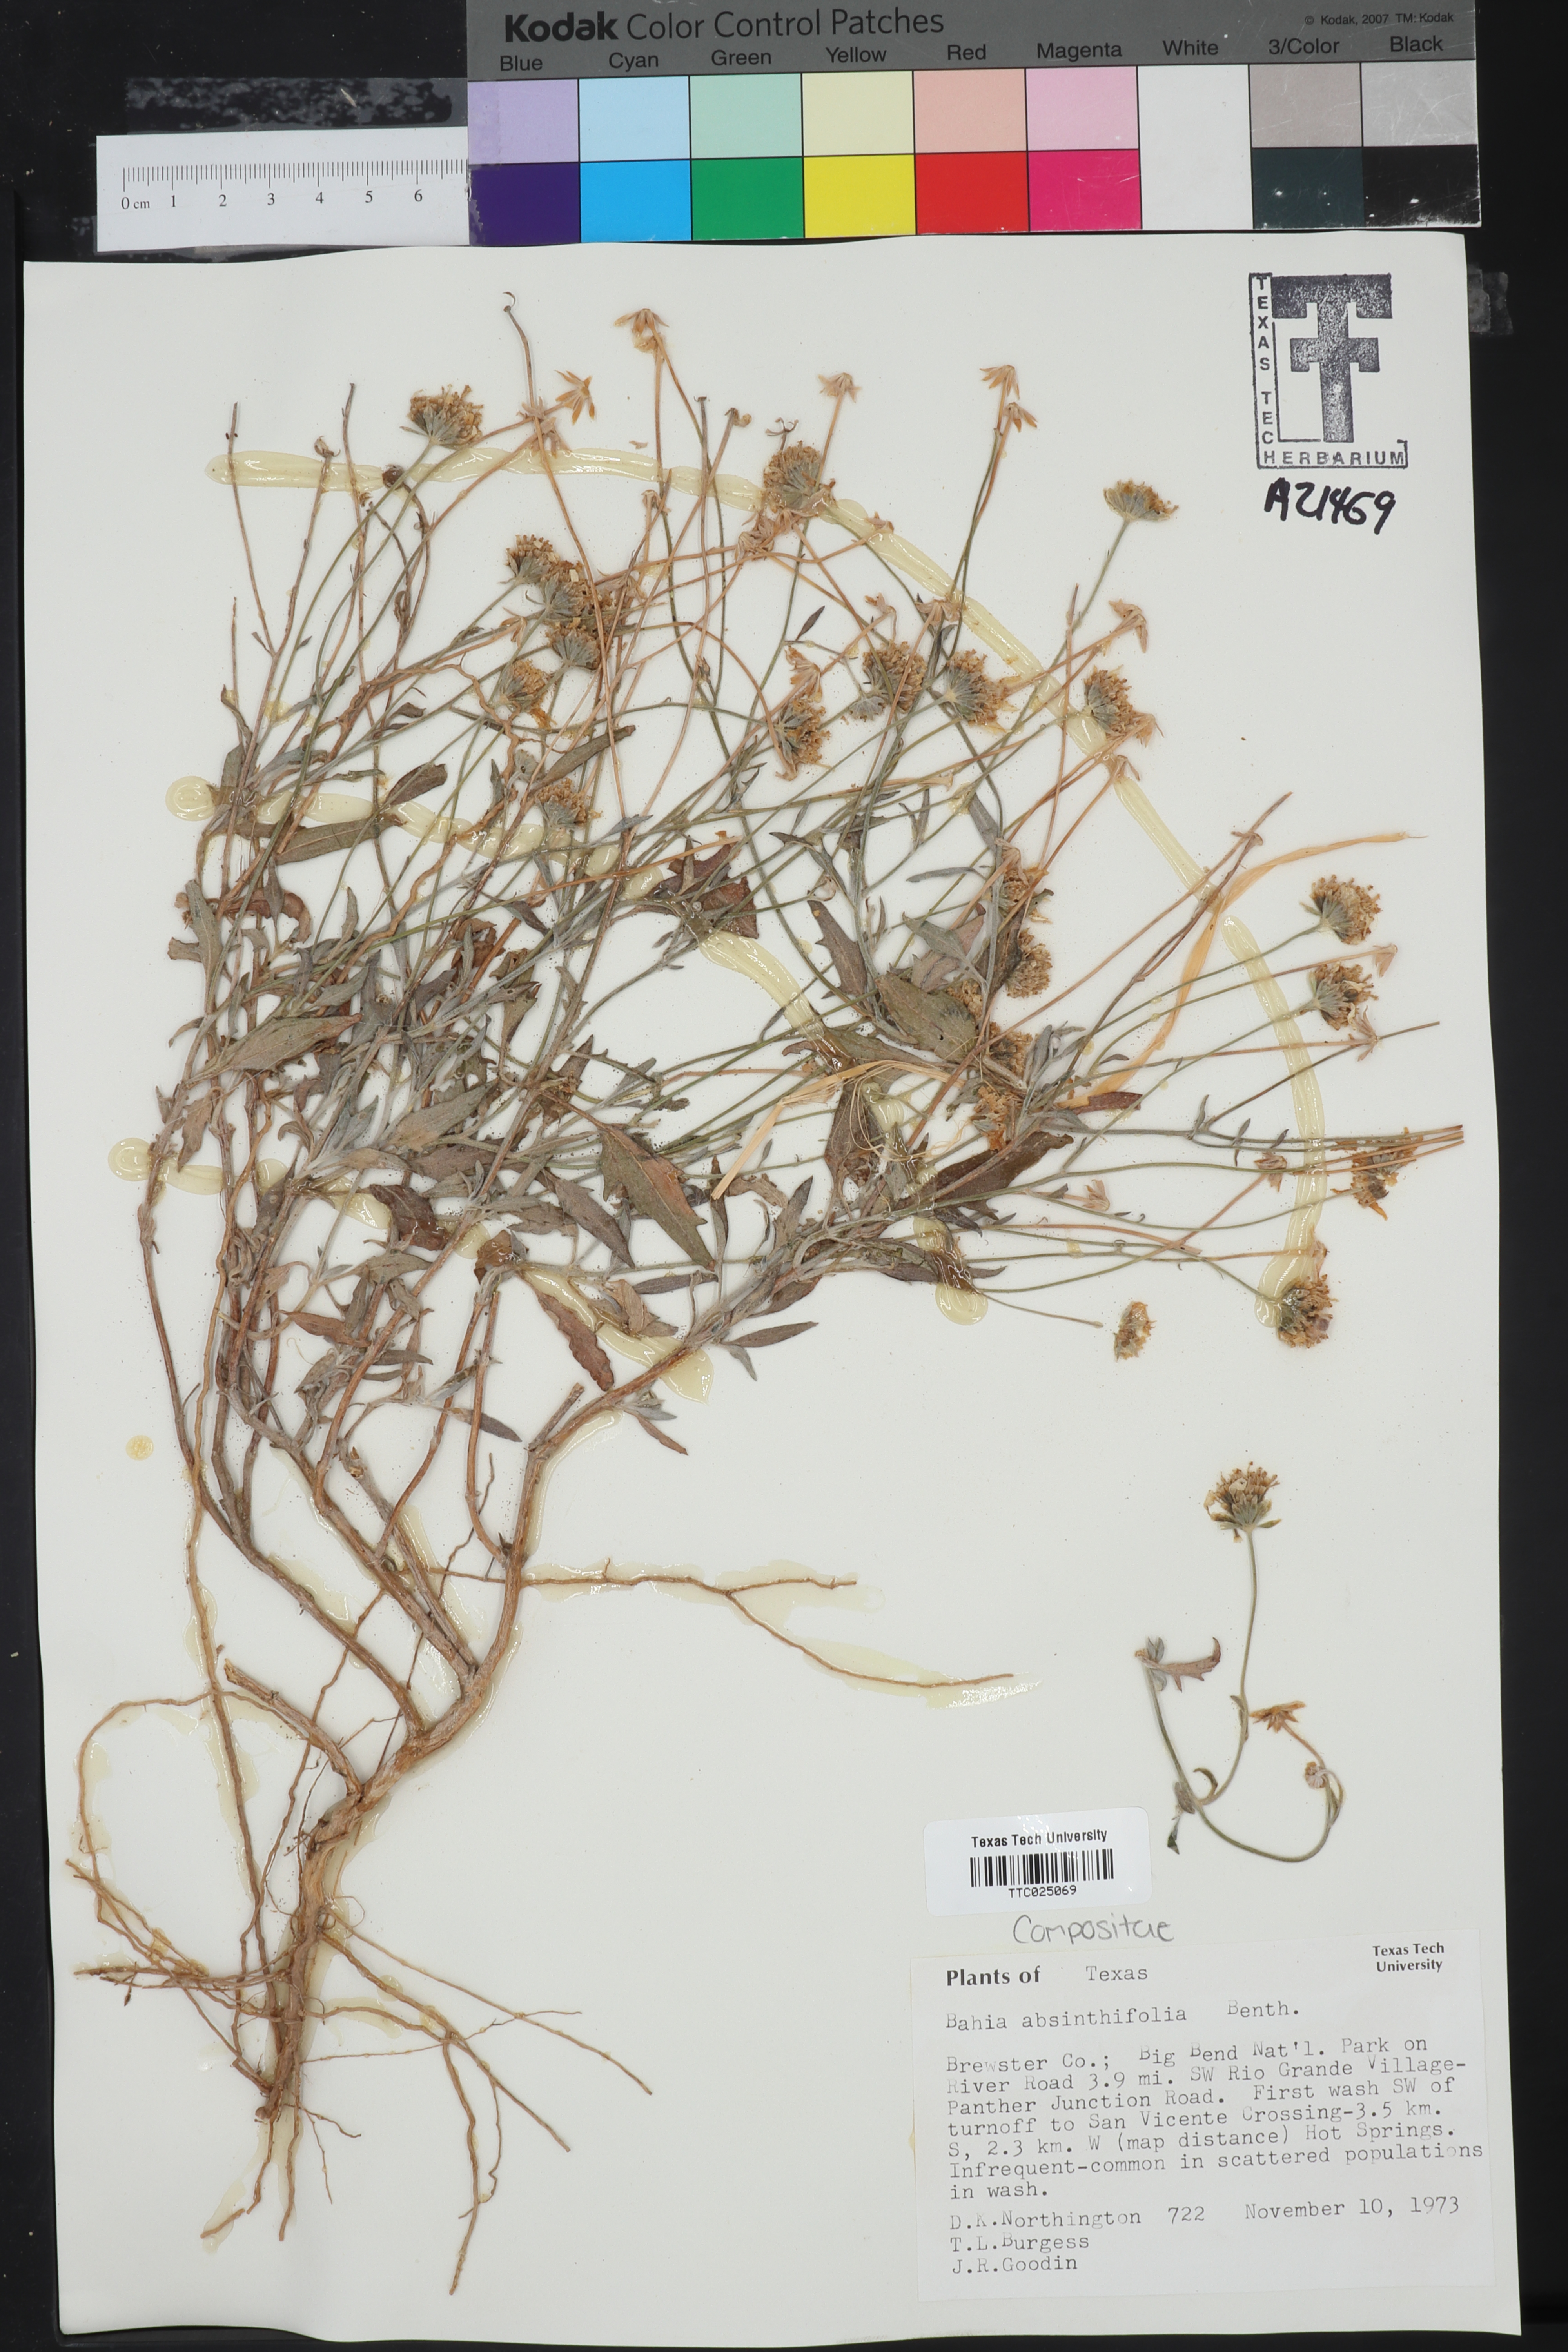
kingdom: Plantae
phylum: Tracheophyta
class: Magnoliopsida
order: Asterales
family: Asteraceae
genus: Picradeniopsis
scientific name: Picradeniopsis absinthifolia
